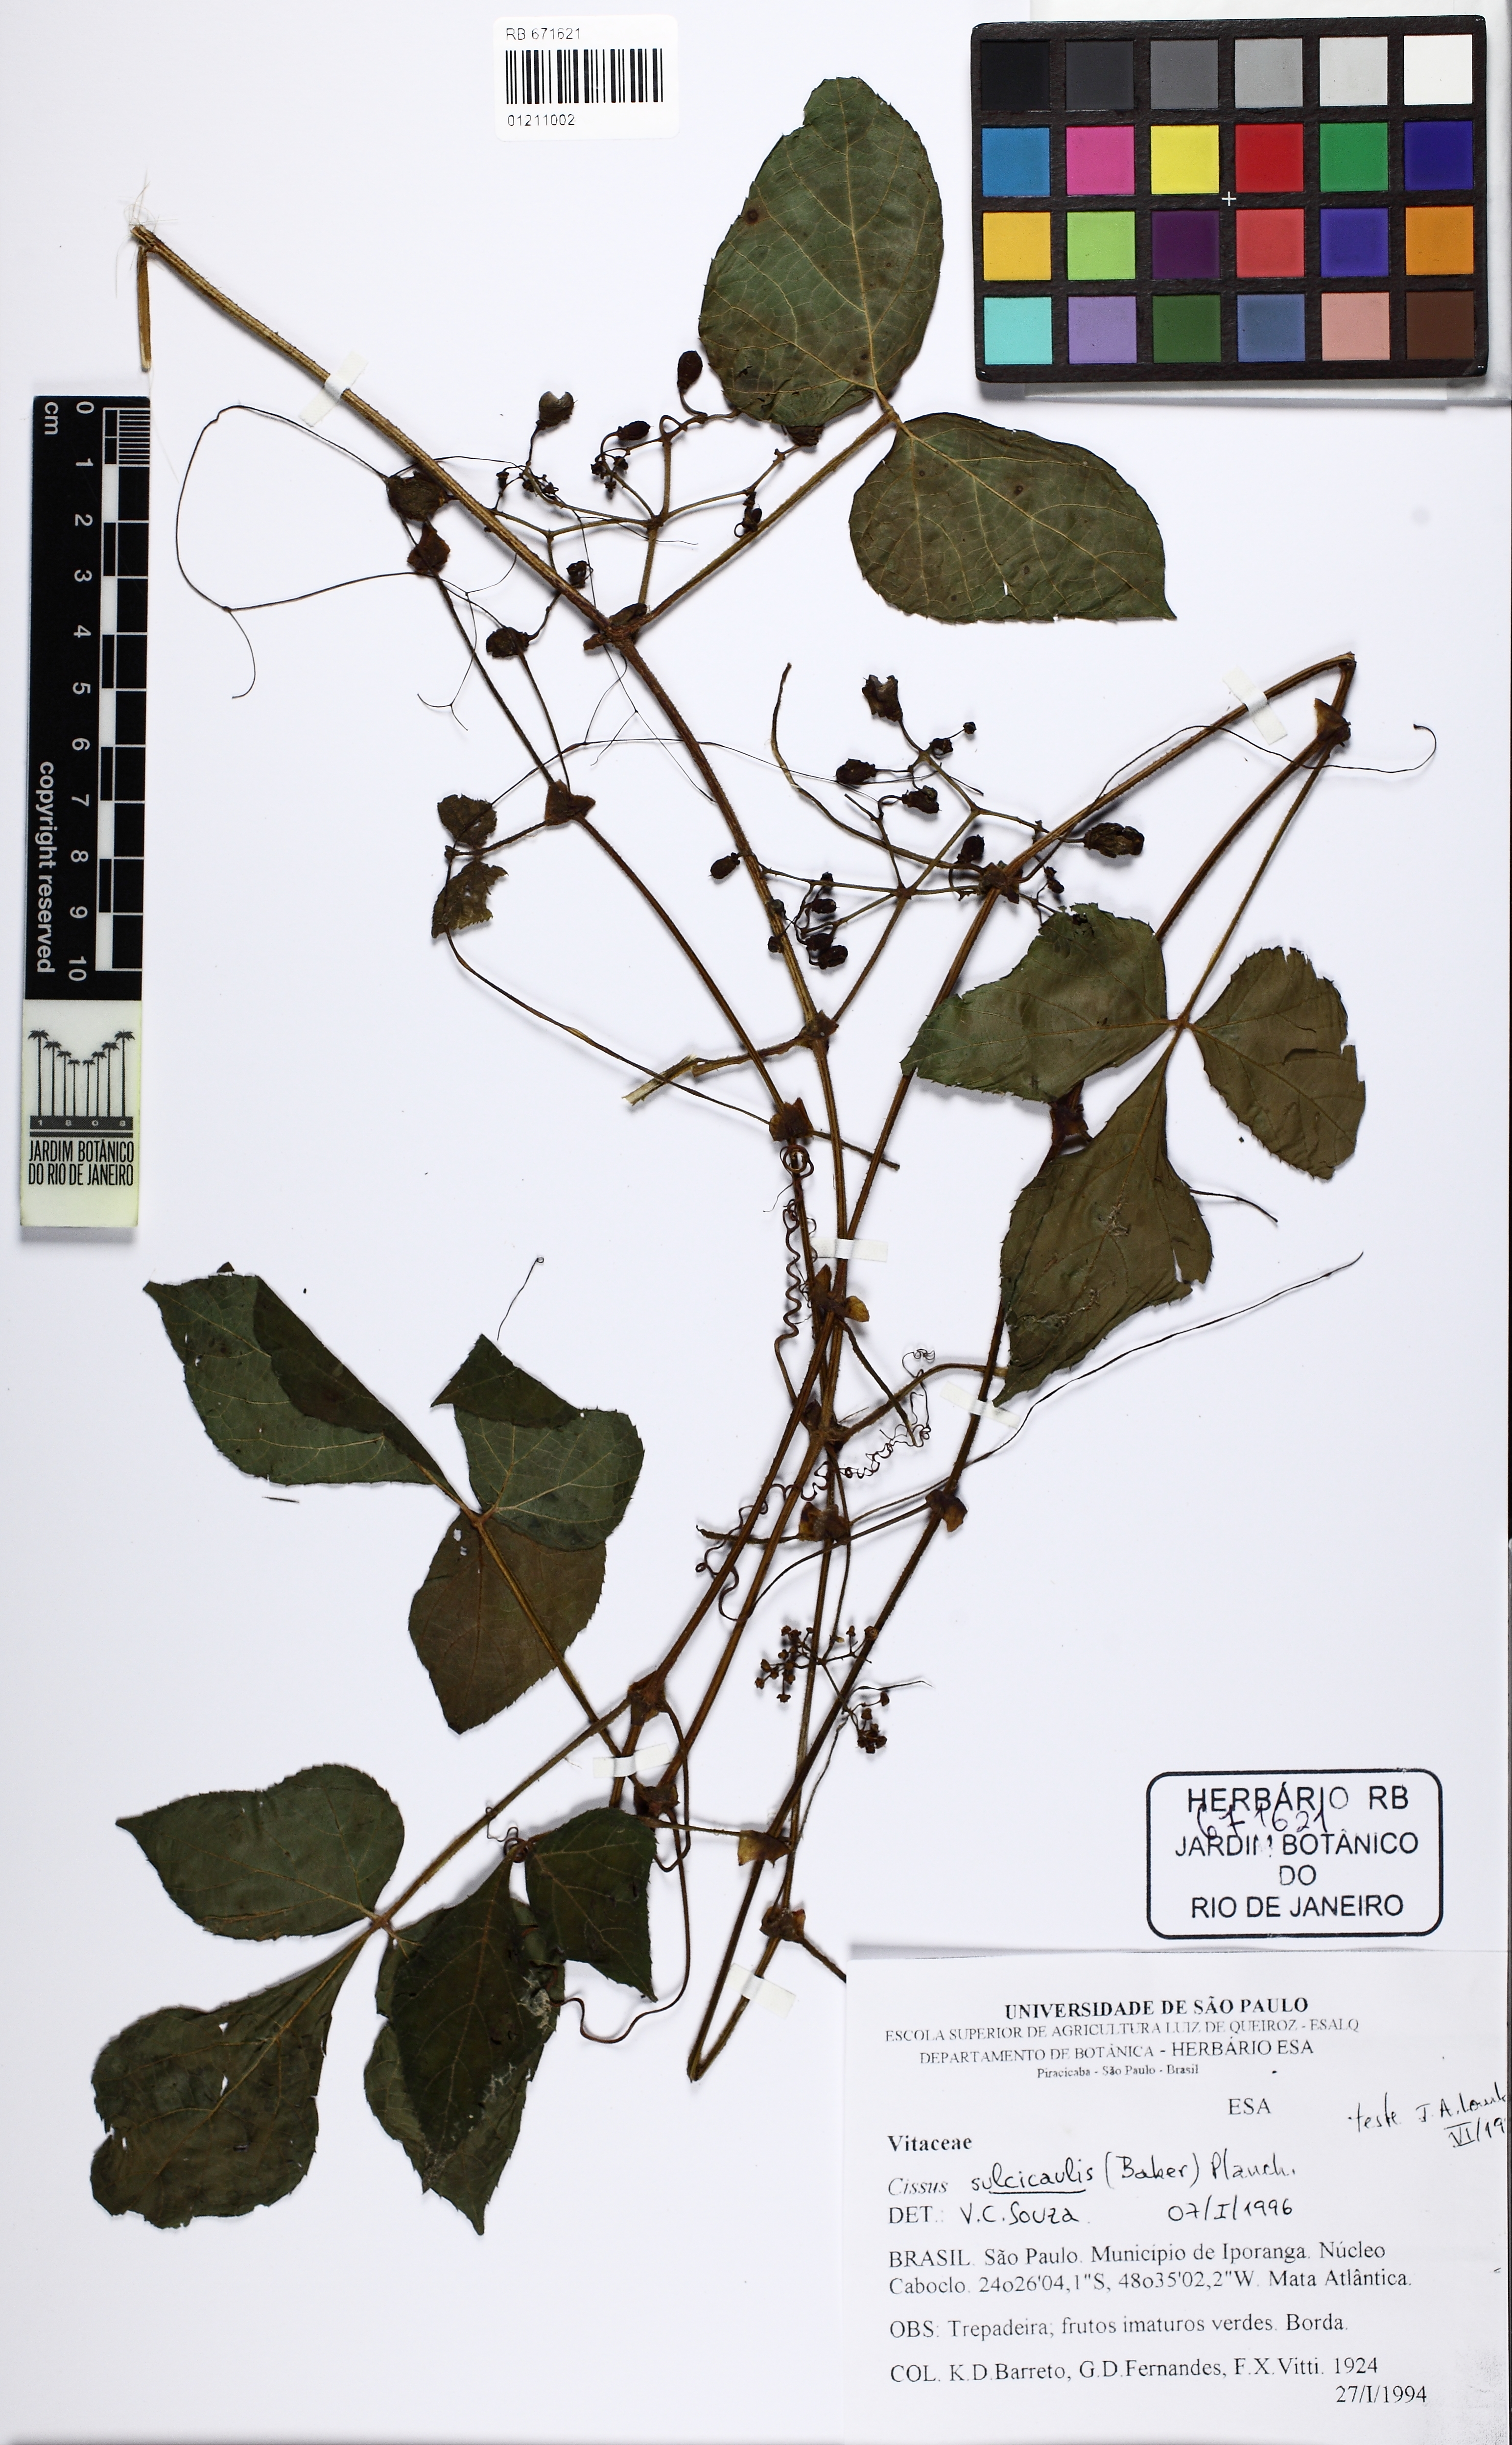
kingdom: Plantae
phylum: Tracheophyta
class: Magnoliopsida
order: Vitales
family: Vitaceae
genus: Cissus
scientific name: Cissus sulcicaulis
